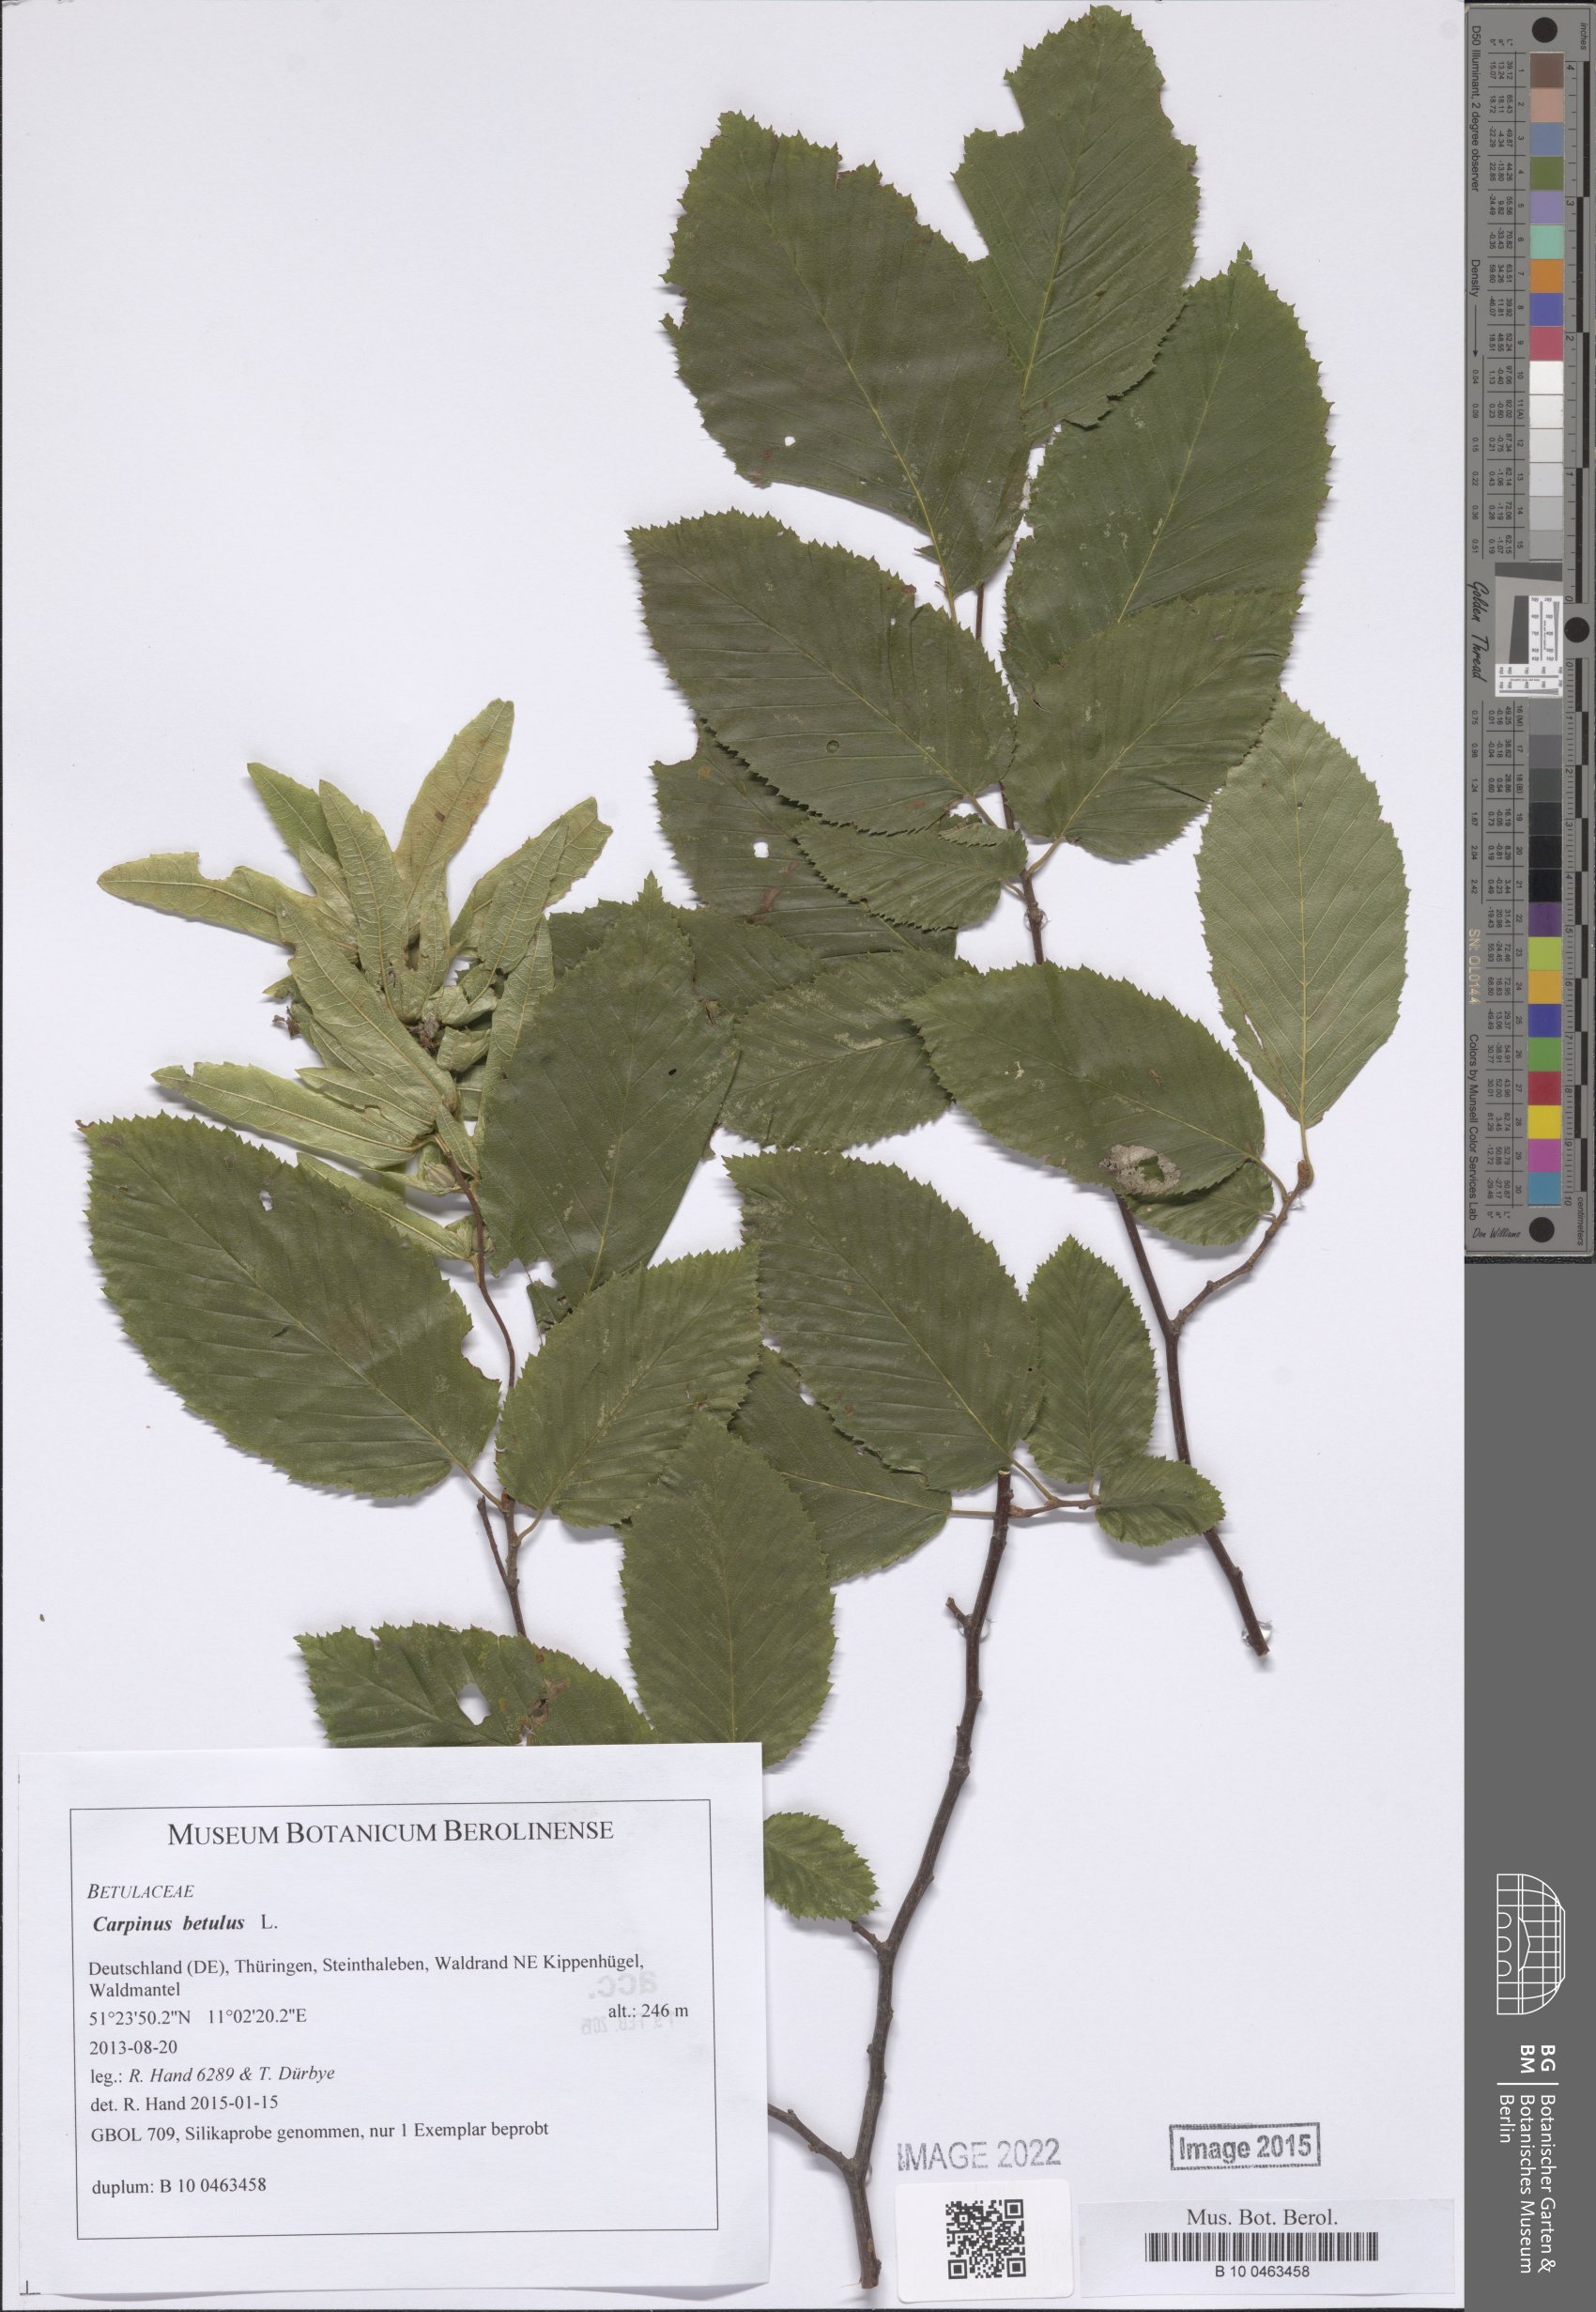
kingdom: Plantae
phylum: Tracheophyta
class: Magnoliopsida
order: Fagales
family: Betulaceae
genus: Carpinus
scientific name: Carpinus betulus
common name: Hornbeam
